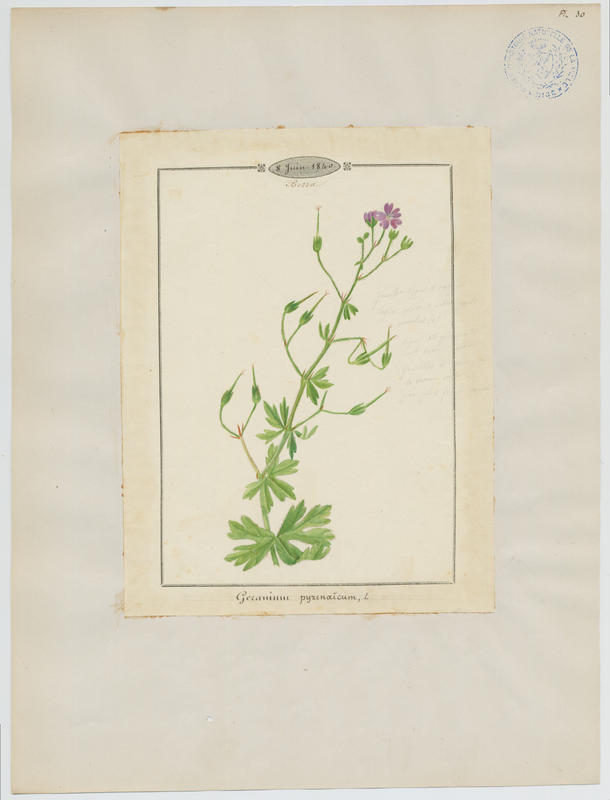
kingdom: Plantae
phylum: Tracheophyta
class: Magnoliopsida
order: Geraniales
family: Geraniaceae
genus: Geranium
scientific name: Geranium pyrenaicum
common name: Hedgerow crane's-bill
